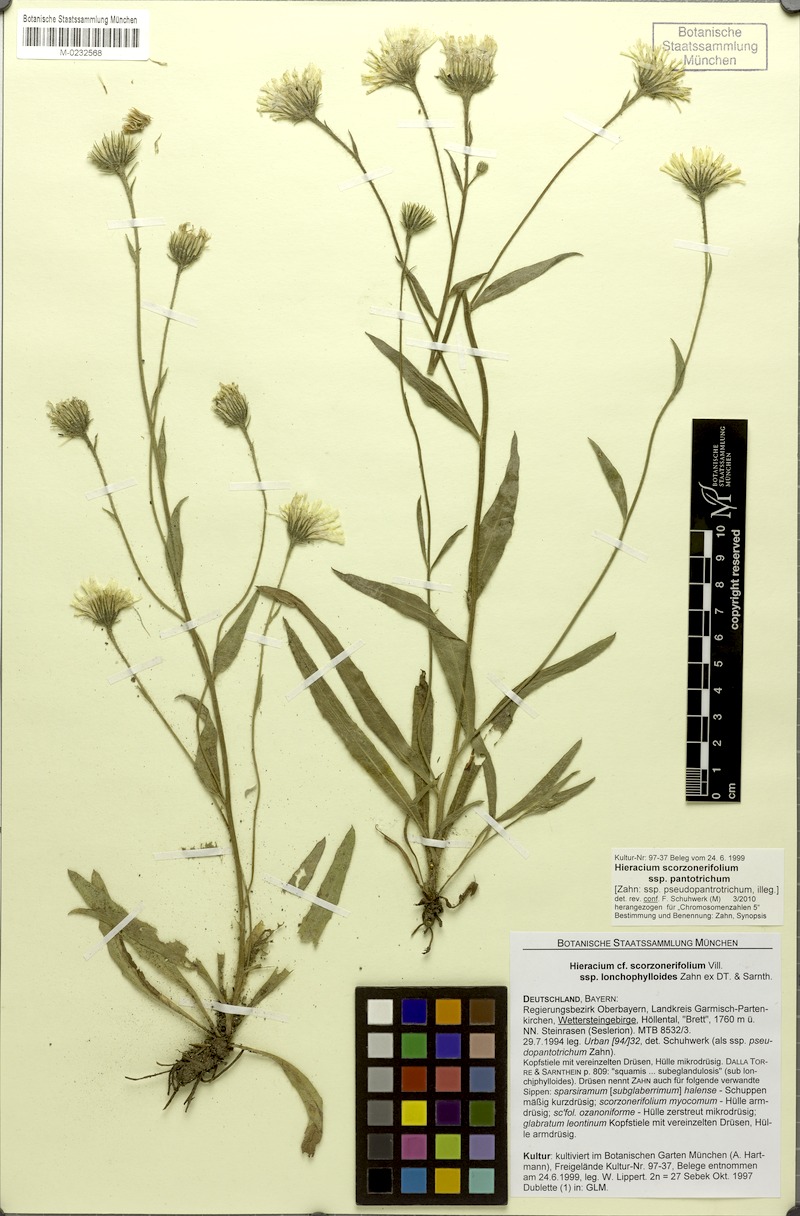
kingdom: Plantae
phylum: Tracheophyta
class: Magnoliopsida
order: Asterales
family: Asteraceae
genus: Hieracium
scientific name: Hieracium scorzonerifolium
